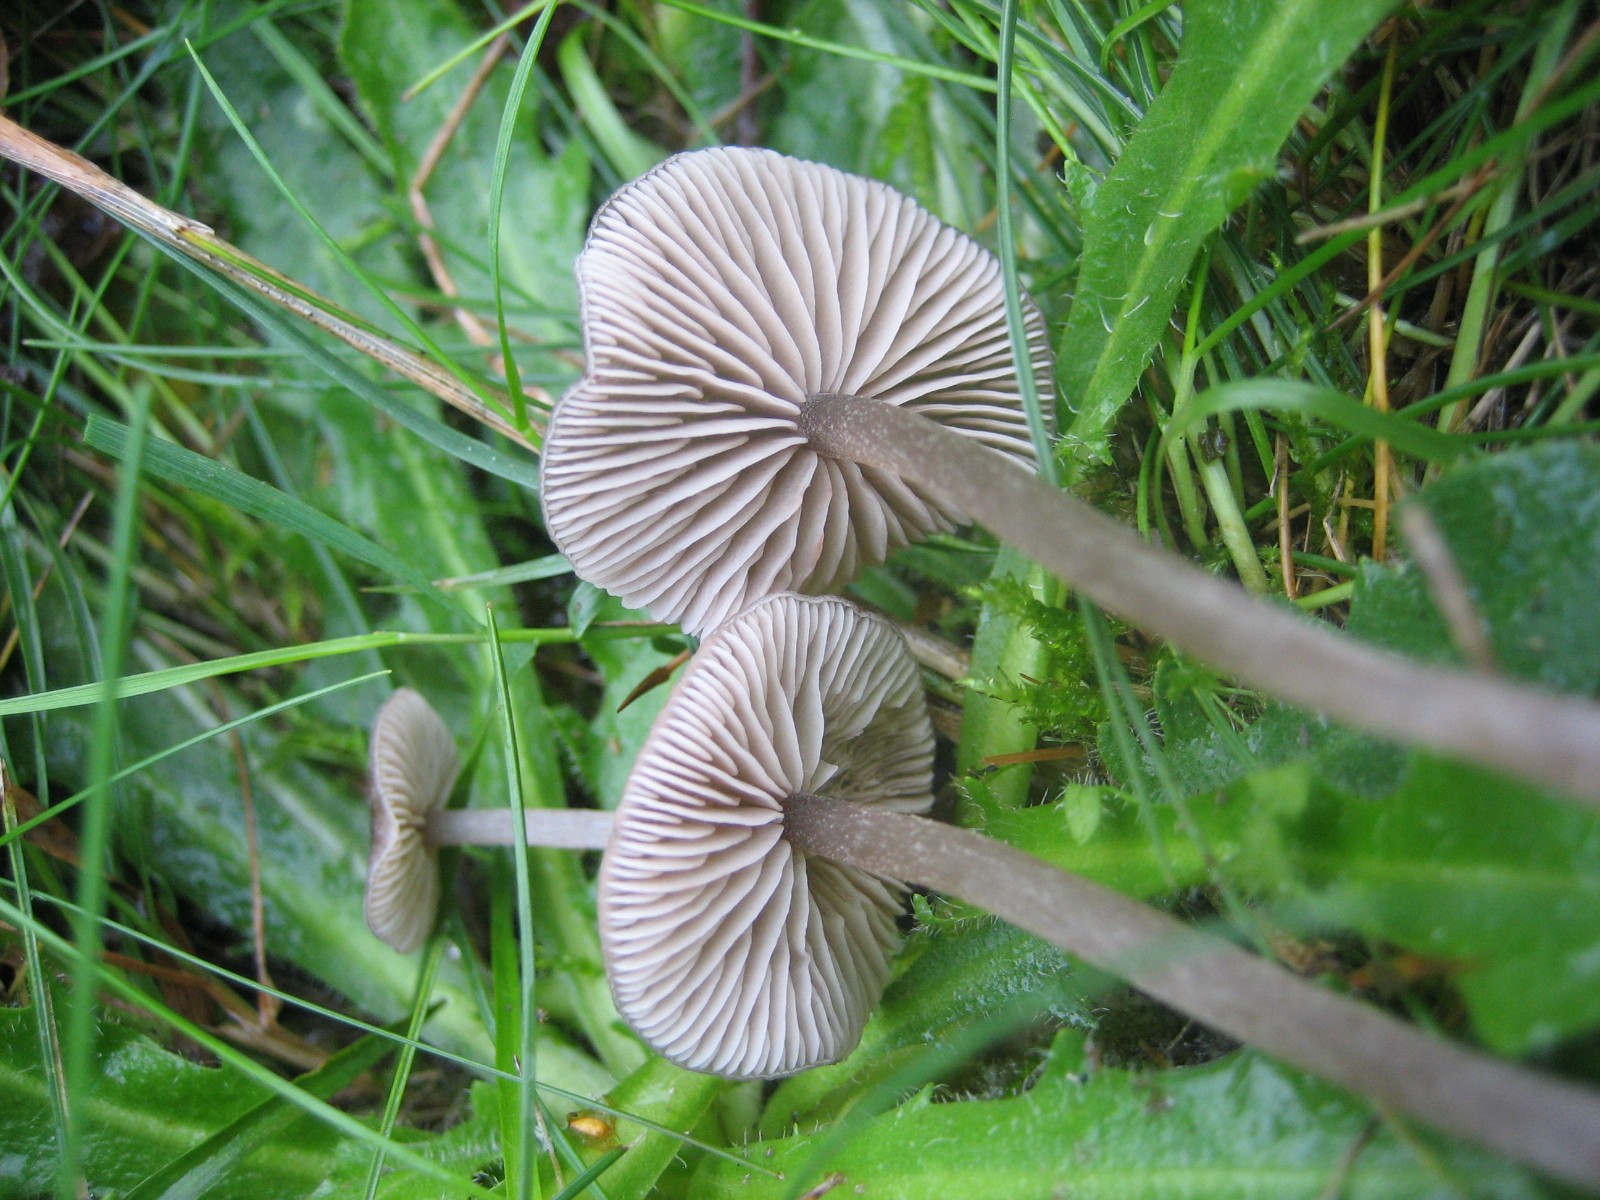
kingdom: Fungi
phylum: Basidiomycota
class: Agaricomycetes
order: Agaricales
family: Entolomataceae
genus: Entoloma
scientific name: Entoloma
